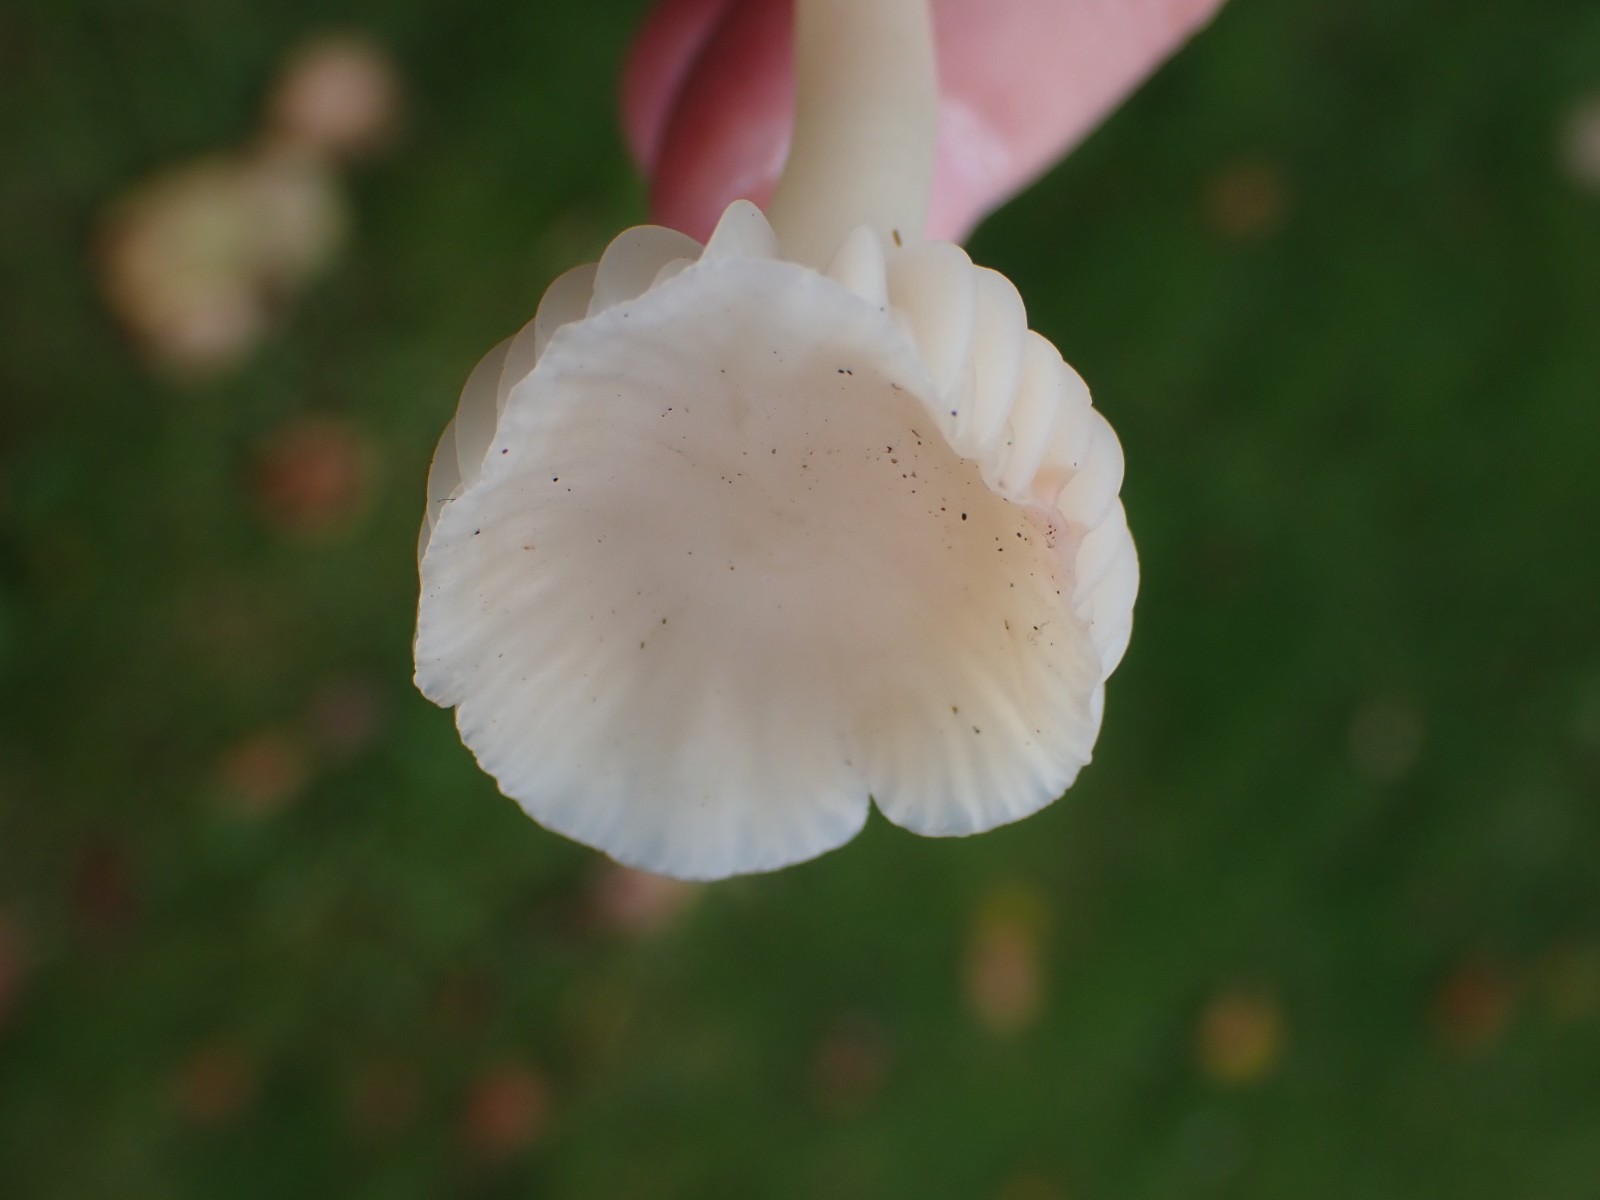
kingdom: Fungi
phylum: Basidiomycota
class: Agaricomycetes
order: Agaricales
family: Hygrophoraceae
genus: Cuphophyllus
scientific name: Cuphophyllus virgineus
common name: snehvid vokshat
